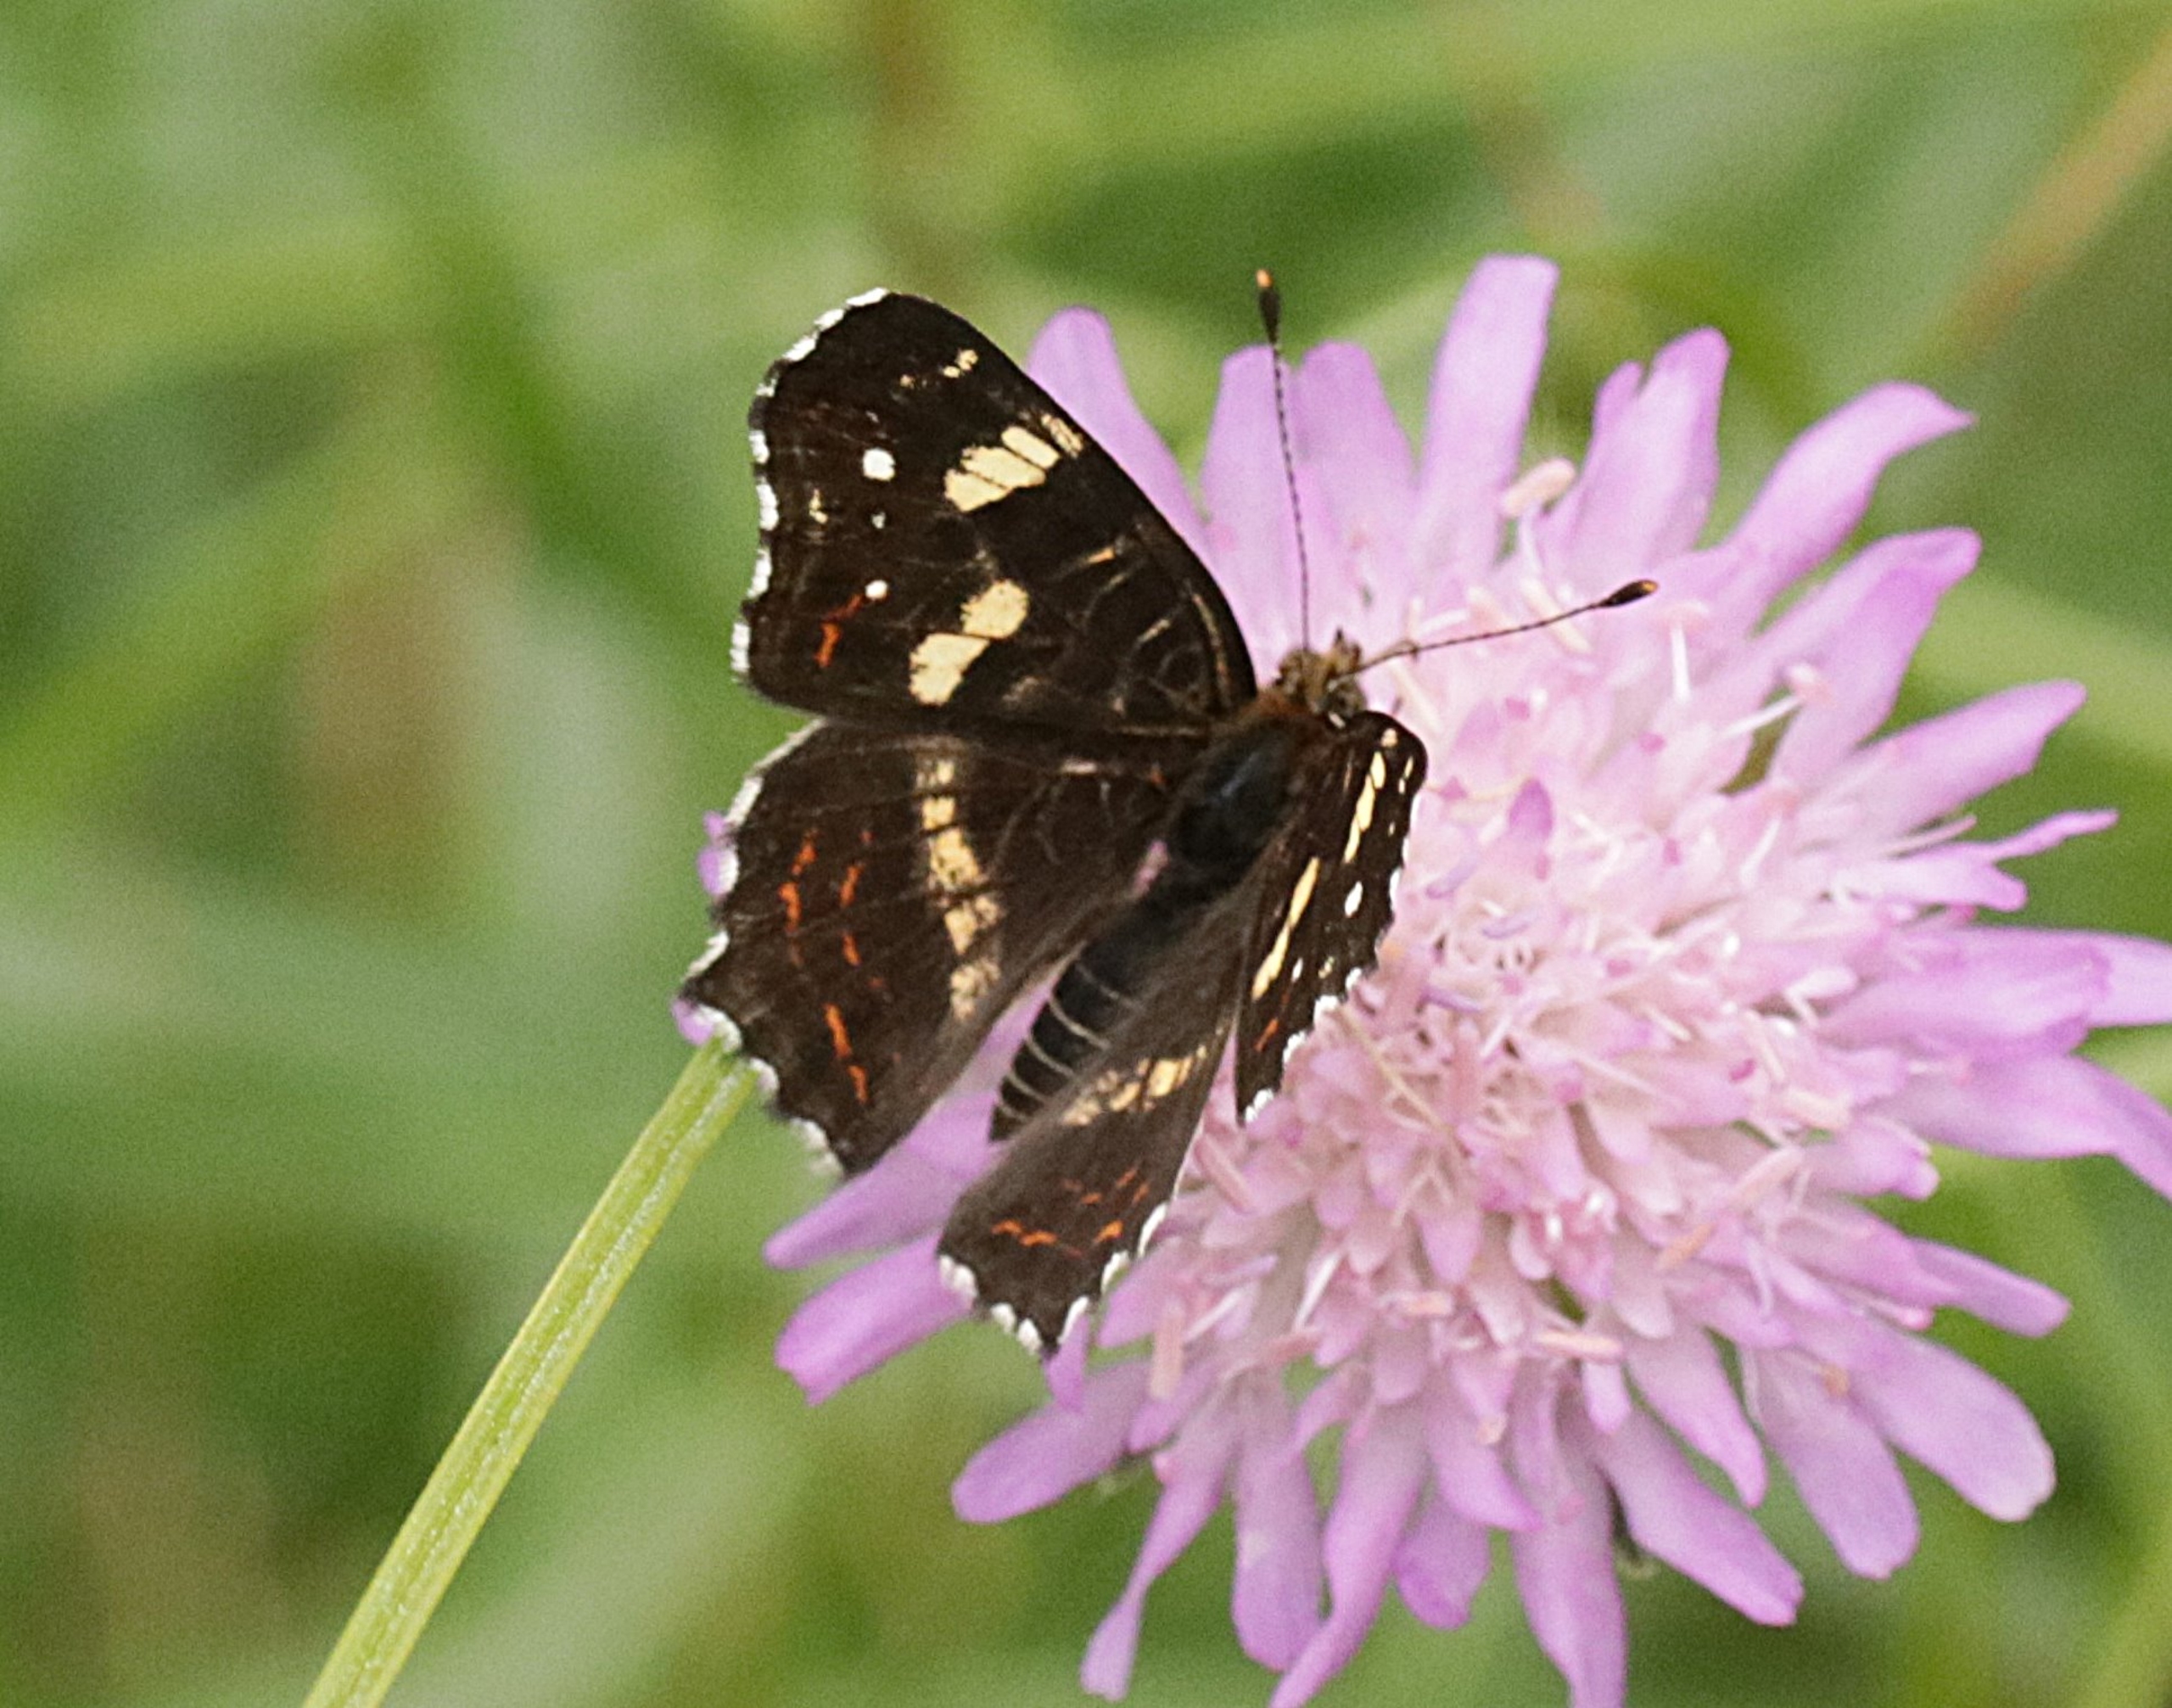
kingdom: Animalia
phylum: Arthropoda
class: Insecta
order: Lepidoptera
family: Nymphalidae
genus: Araschnia
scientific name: Araschnia levana
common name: Nældesommerfugl
